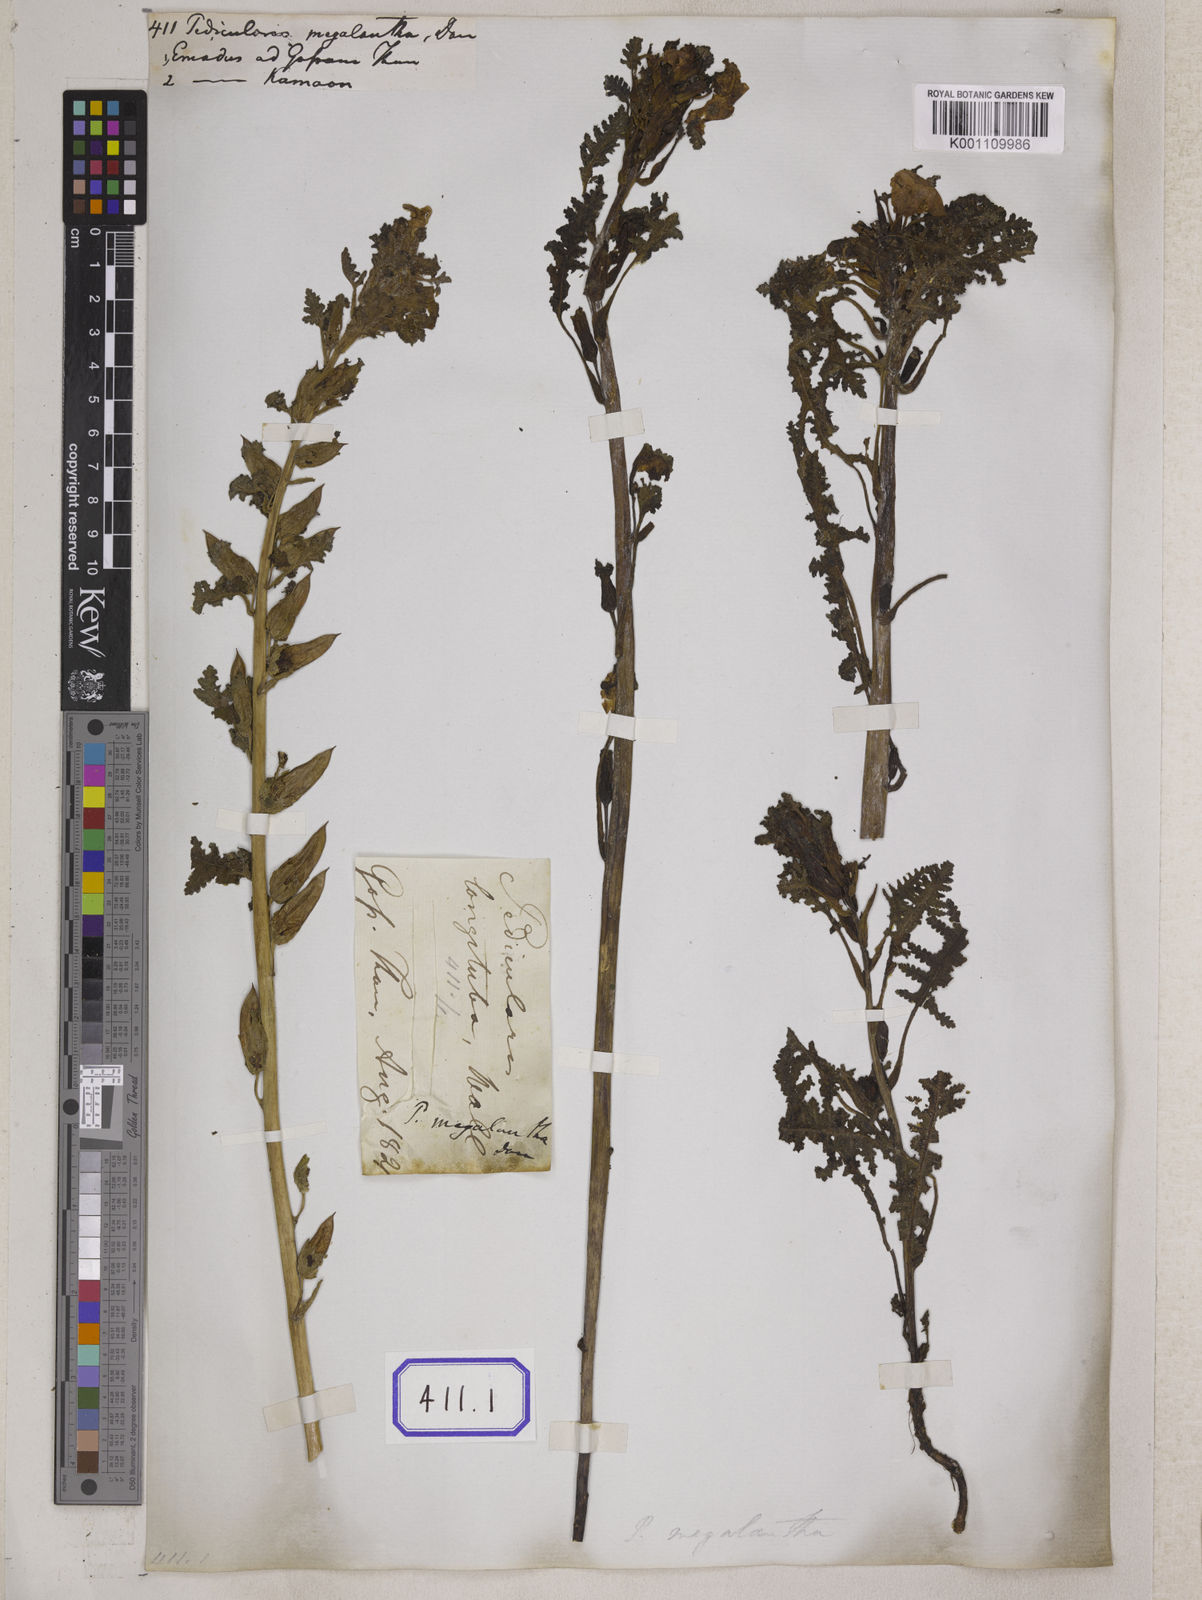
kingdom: Plantae
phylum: Tracheophyta
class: Magnoliopsida
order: Lamiales
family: Orobanchaceae
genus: Pedicularis
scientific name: Pedicularis megalantha
